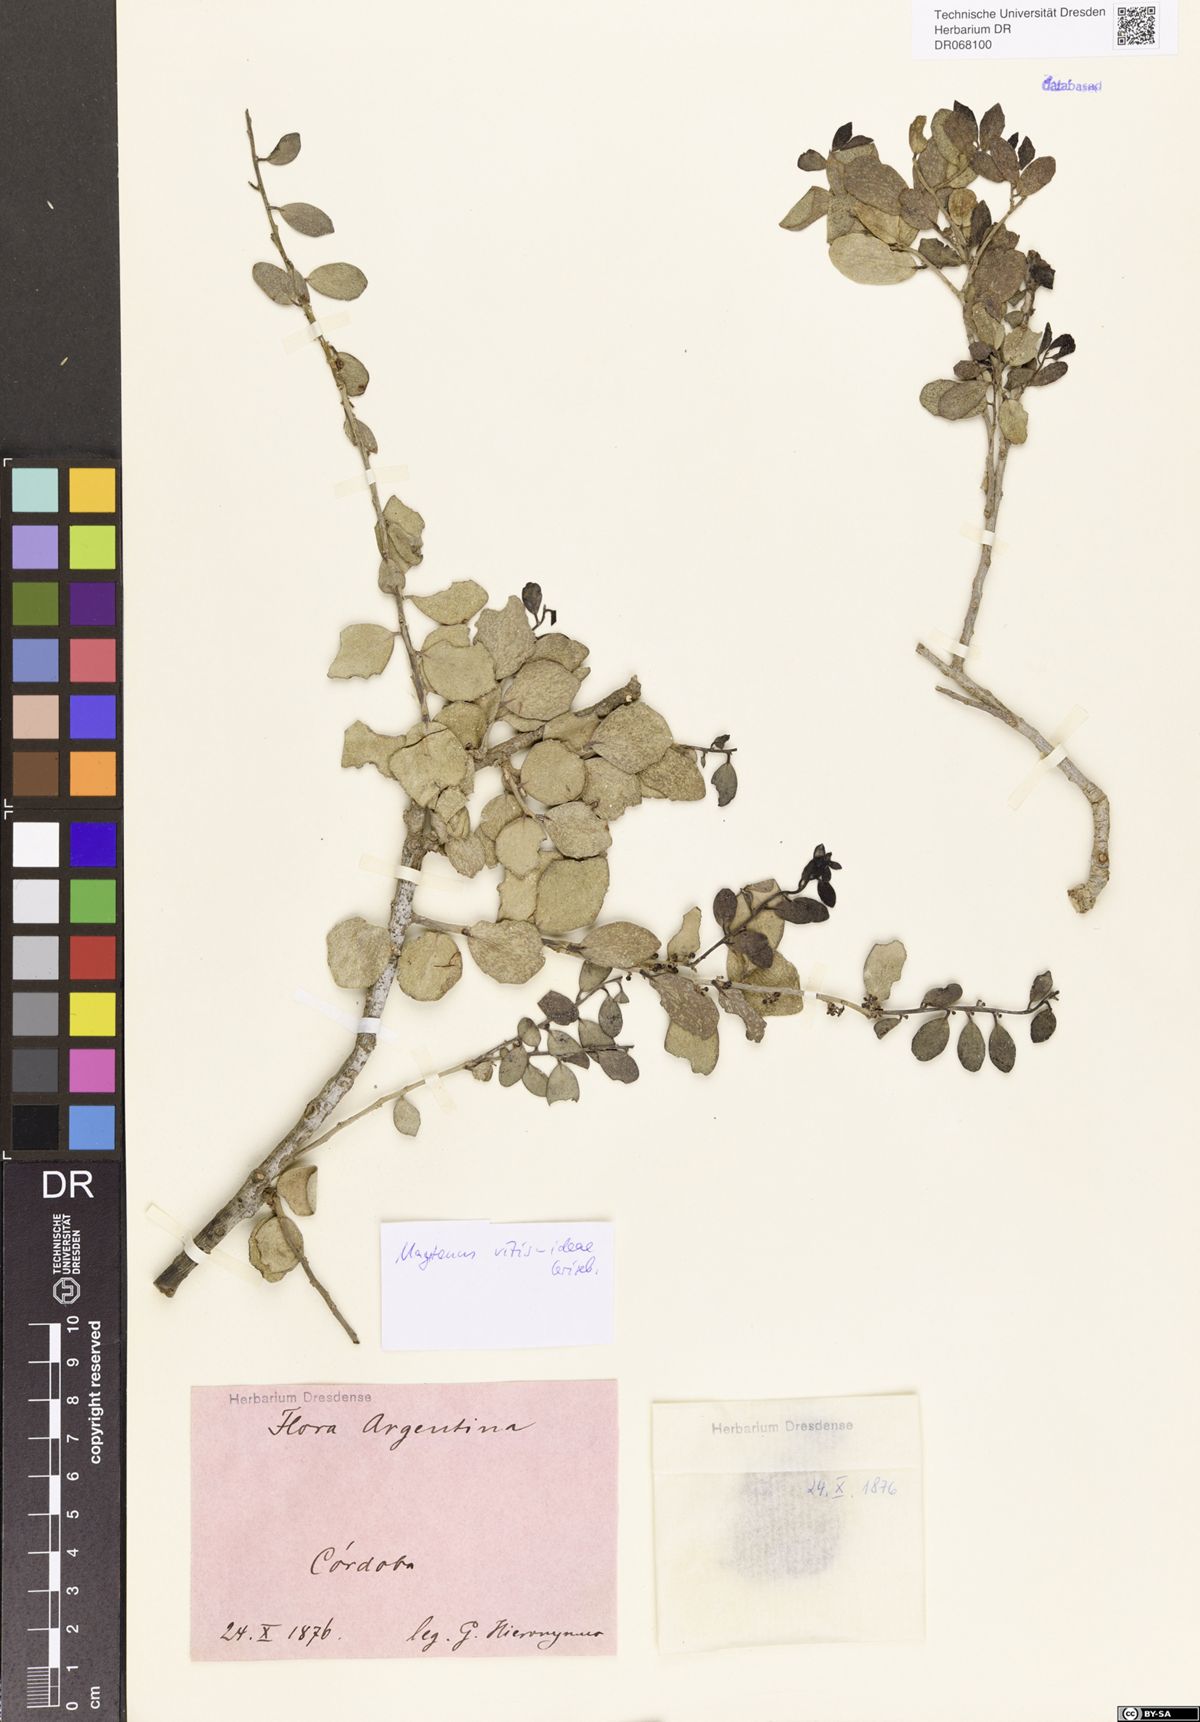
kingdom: Plantae
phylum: Tracheophyta
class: Magnoliopsida
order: Celastrales
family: Celastraceae
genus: Tricerma
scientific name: Tricerma vitis-idaeum
